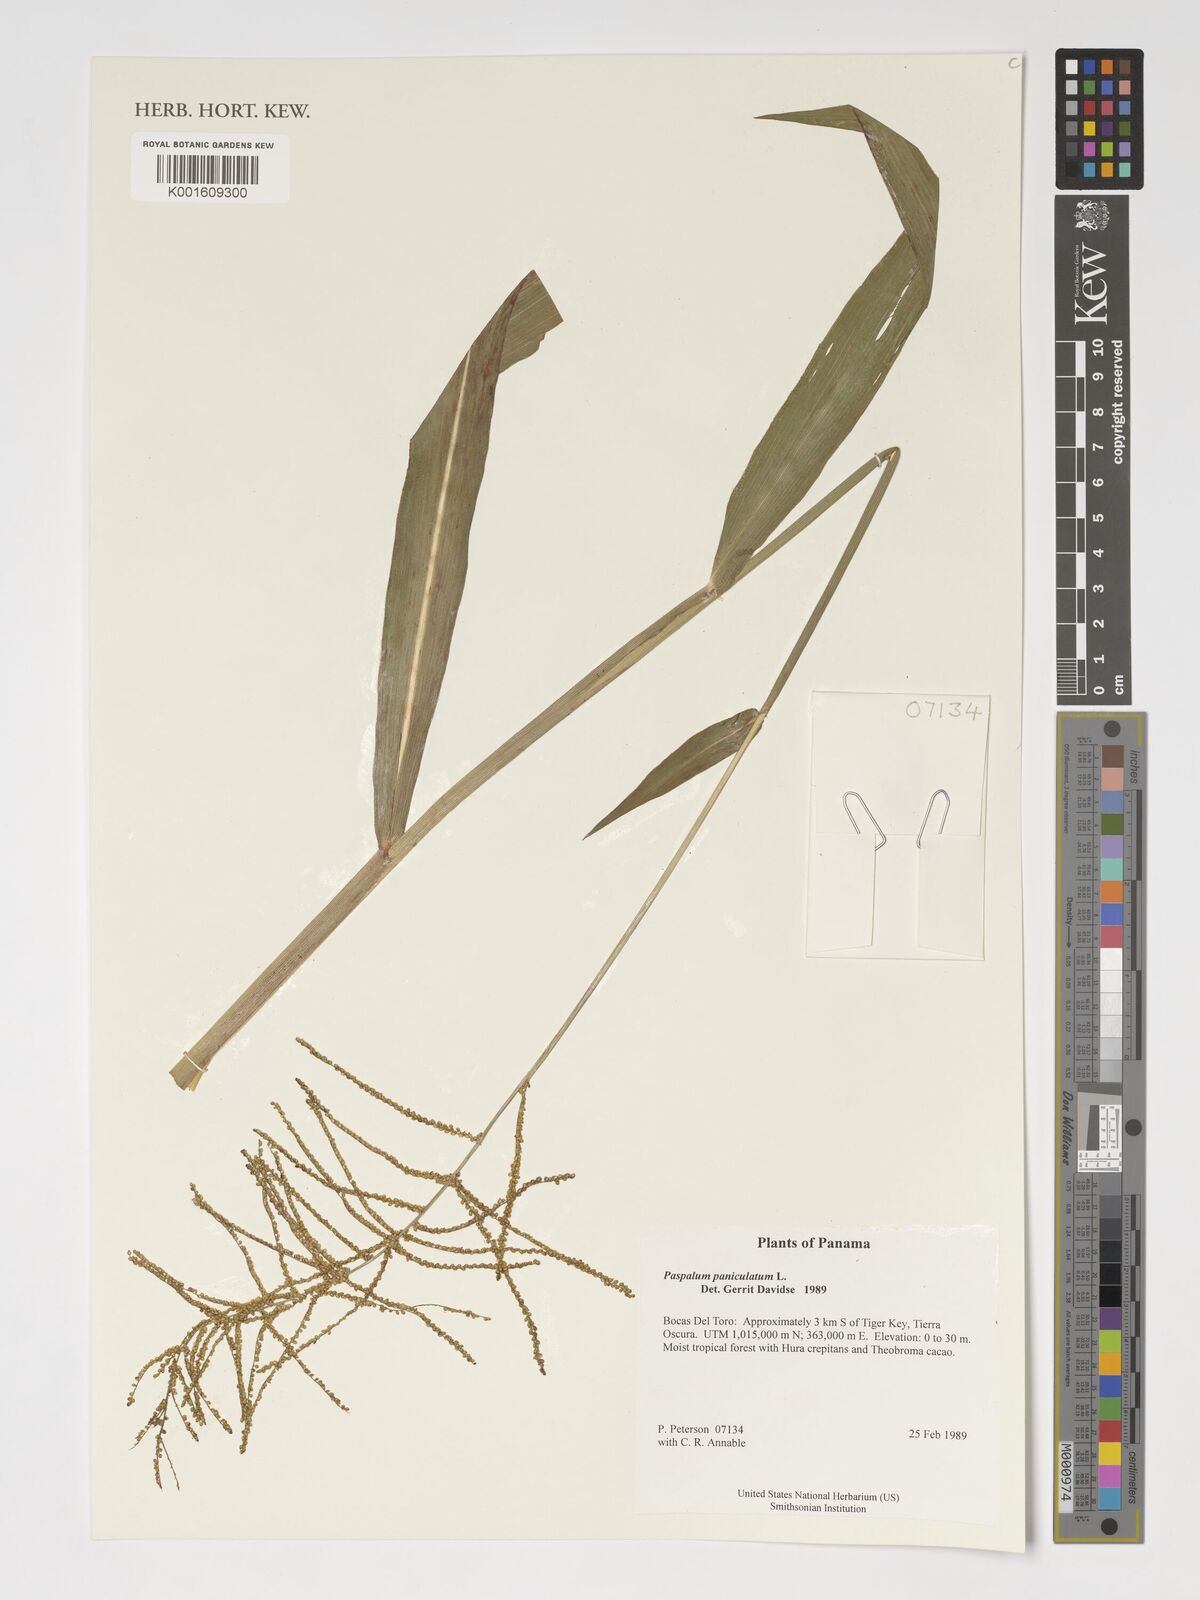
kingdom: Plantae
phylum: Tracheophyta
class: Liliopsida
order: Poales
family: Poaceae
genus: Paspalum
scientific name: Paspalum paniculatum
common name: Arrocillo
